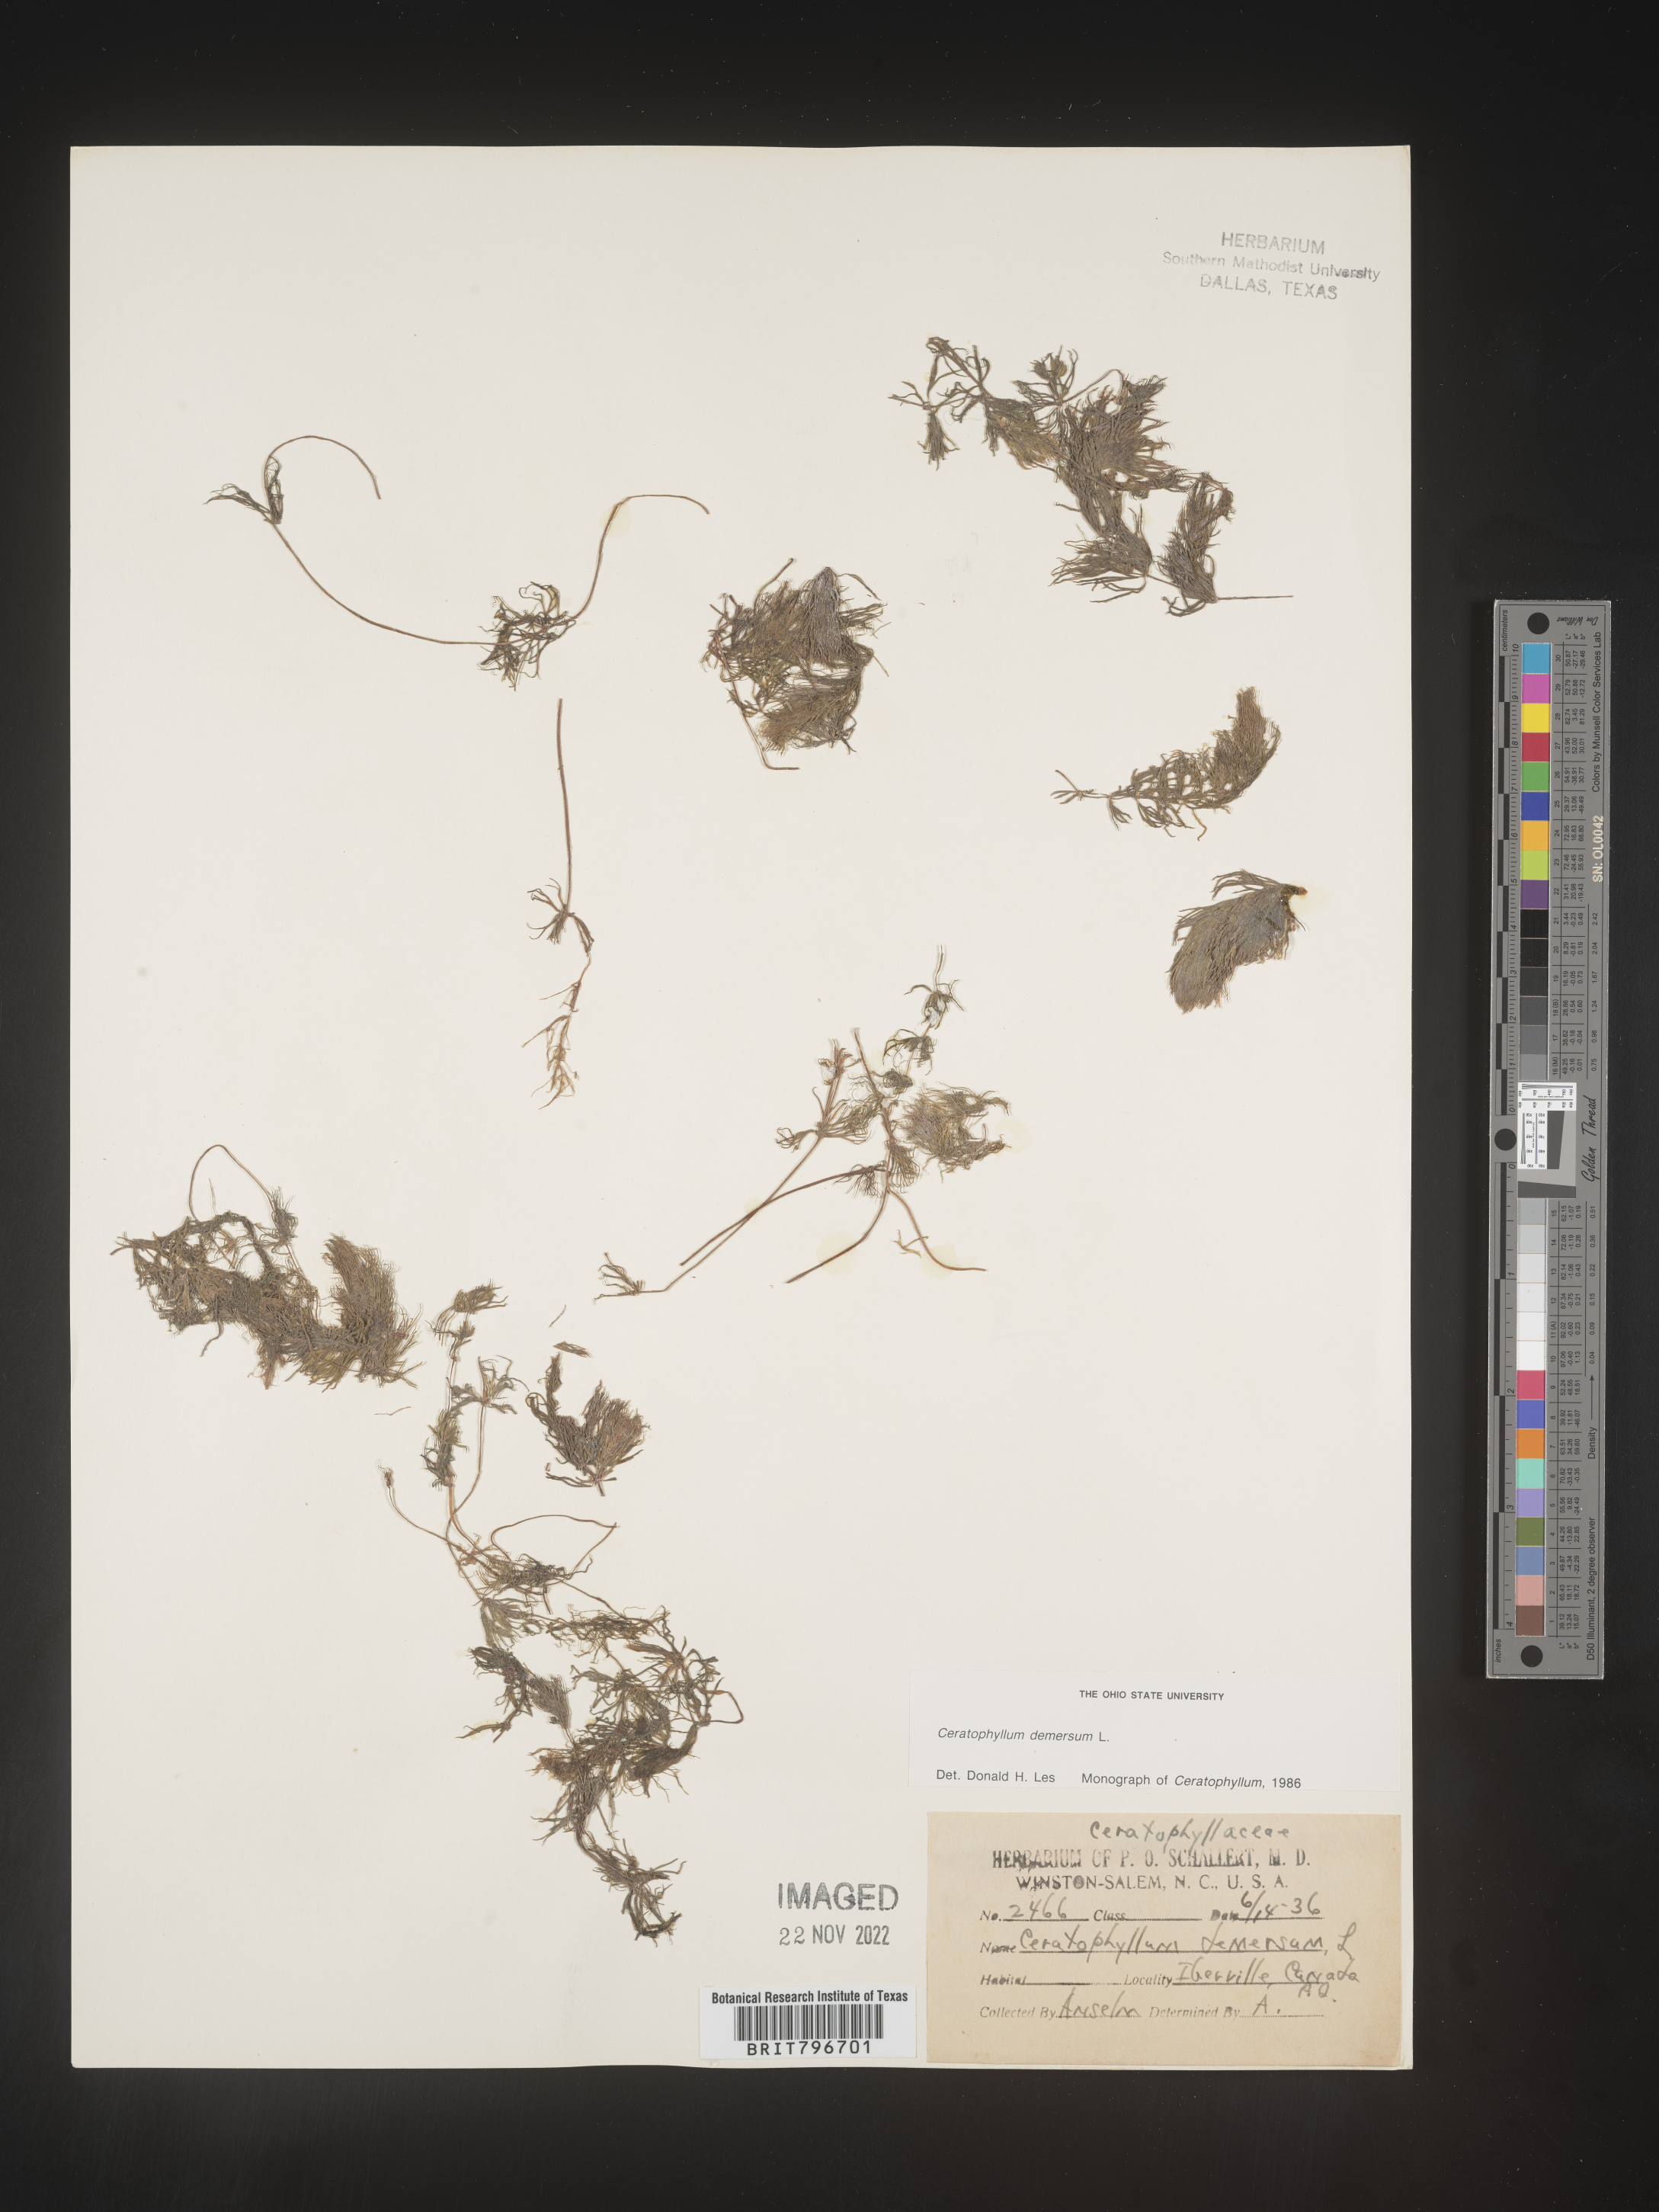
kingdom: Plantae
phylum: Tracheophyta
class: Magnoliopsida
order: Ceratophyllales
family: Ceratophyllaceae
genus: Ceratophyllum
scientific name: Ceratophyllum demersum
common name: Rigid hornwort
